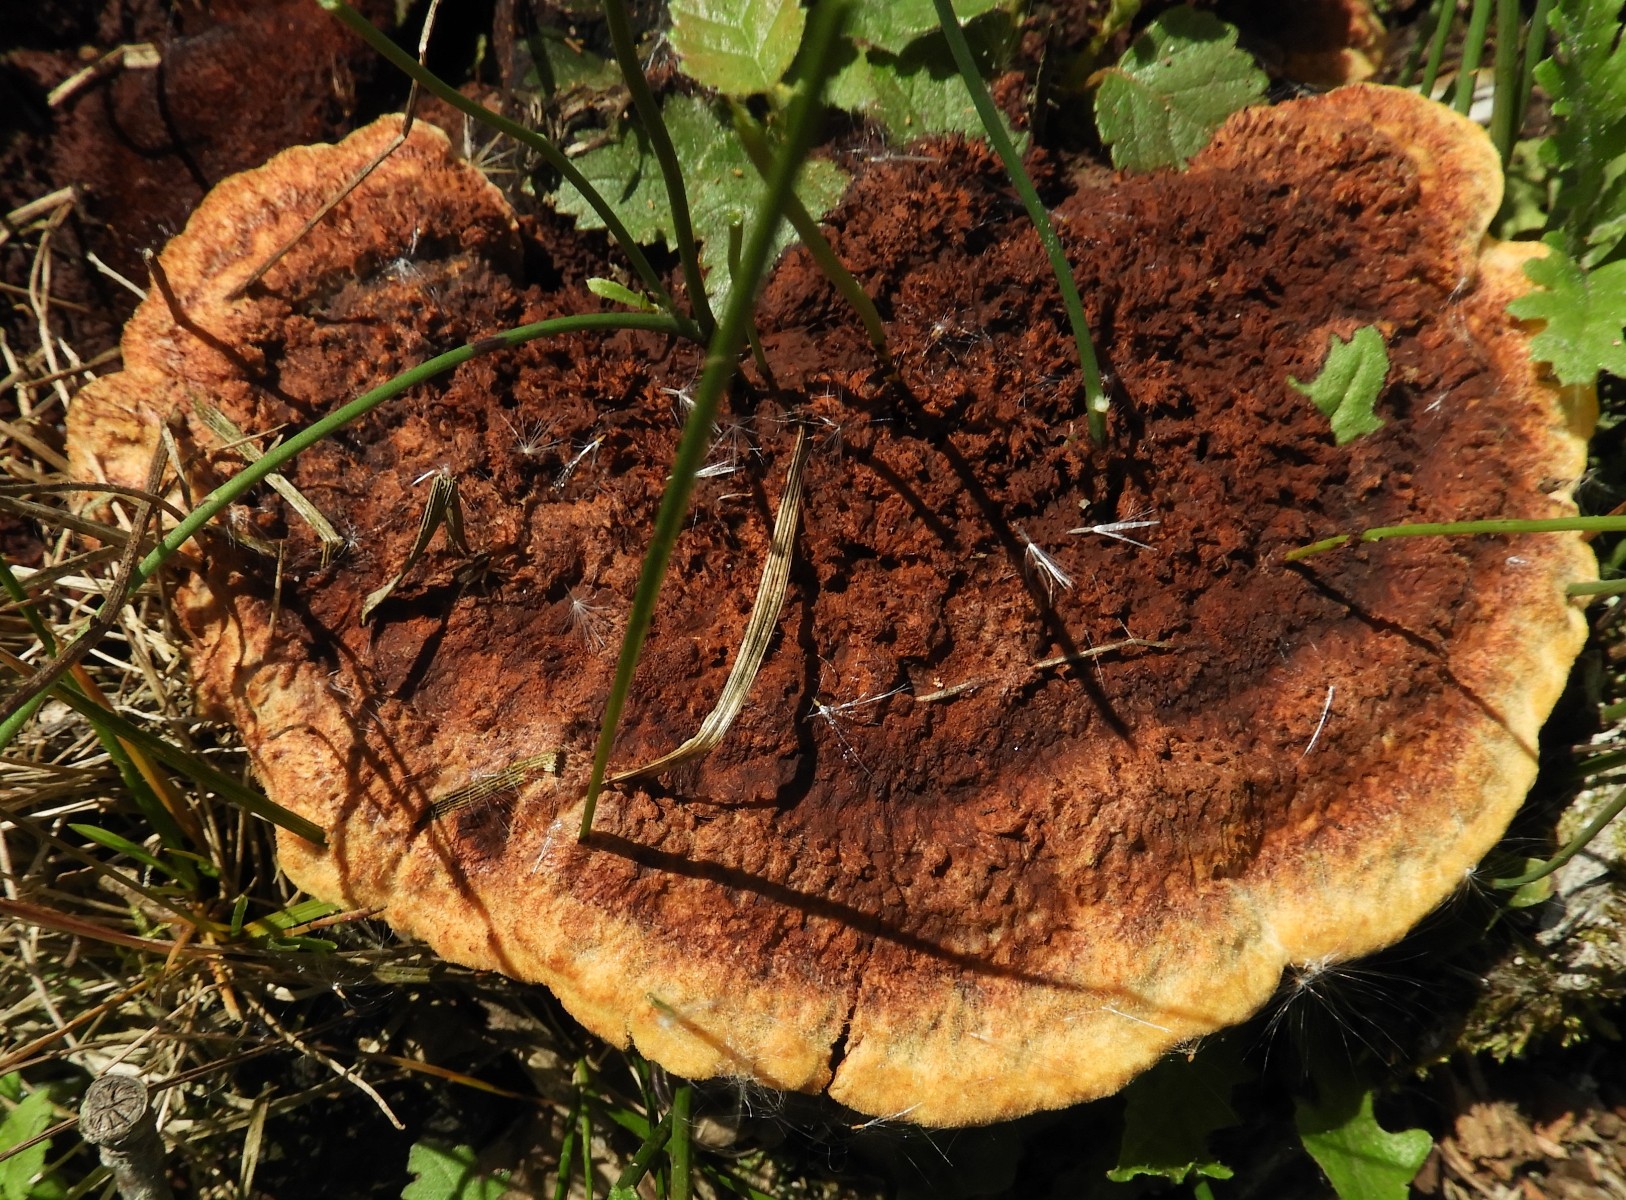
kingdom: Fungi
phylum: Basidiomycota
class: Agaricomycetes
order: Polyporales
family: Laetiporaceae
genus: Phaeolus
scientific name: Phaeolus schweinitzii
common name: brunporesvamp
